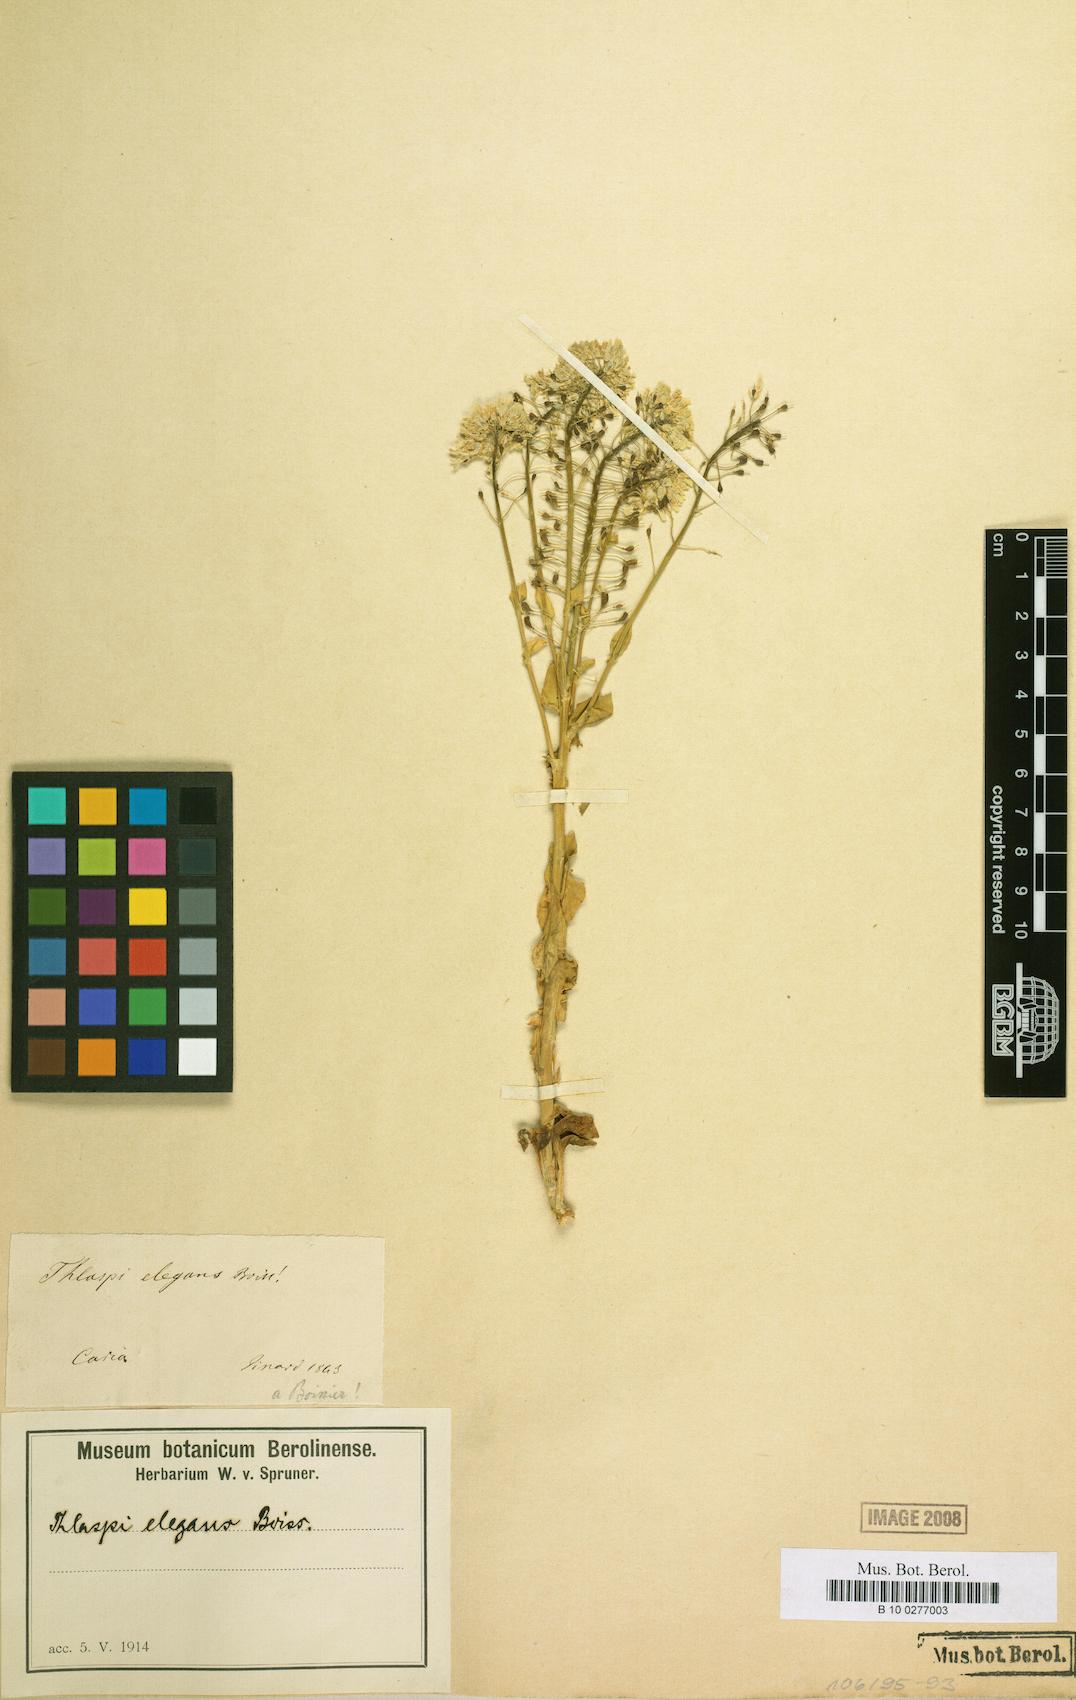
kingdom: Plantae
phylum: Tracheophyta
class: Magnoliopsida
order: Brassicales
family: Brassicaceae
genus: Noccaea
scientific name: Noccaea elegans
